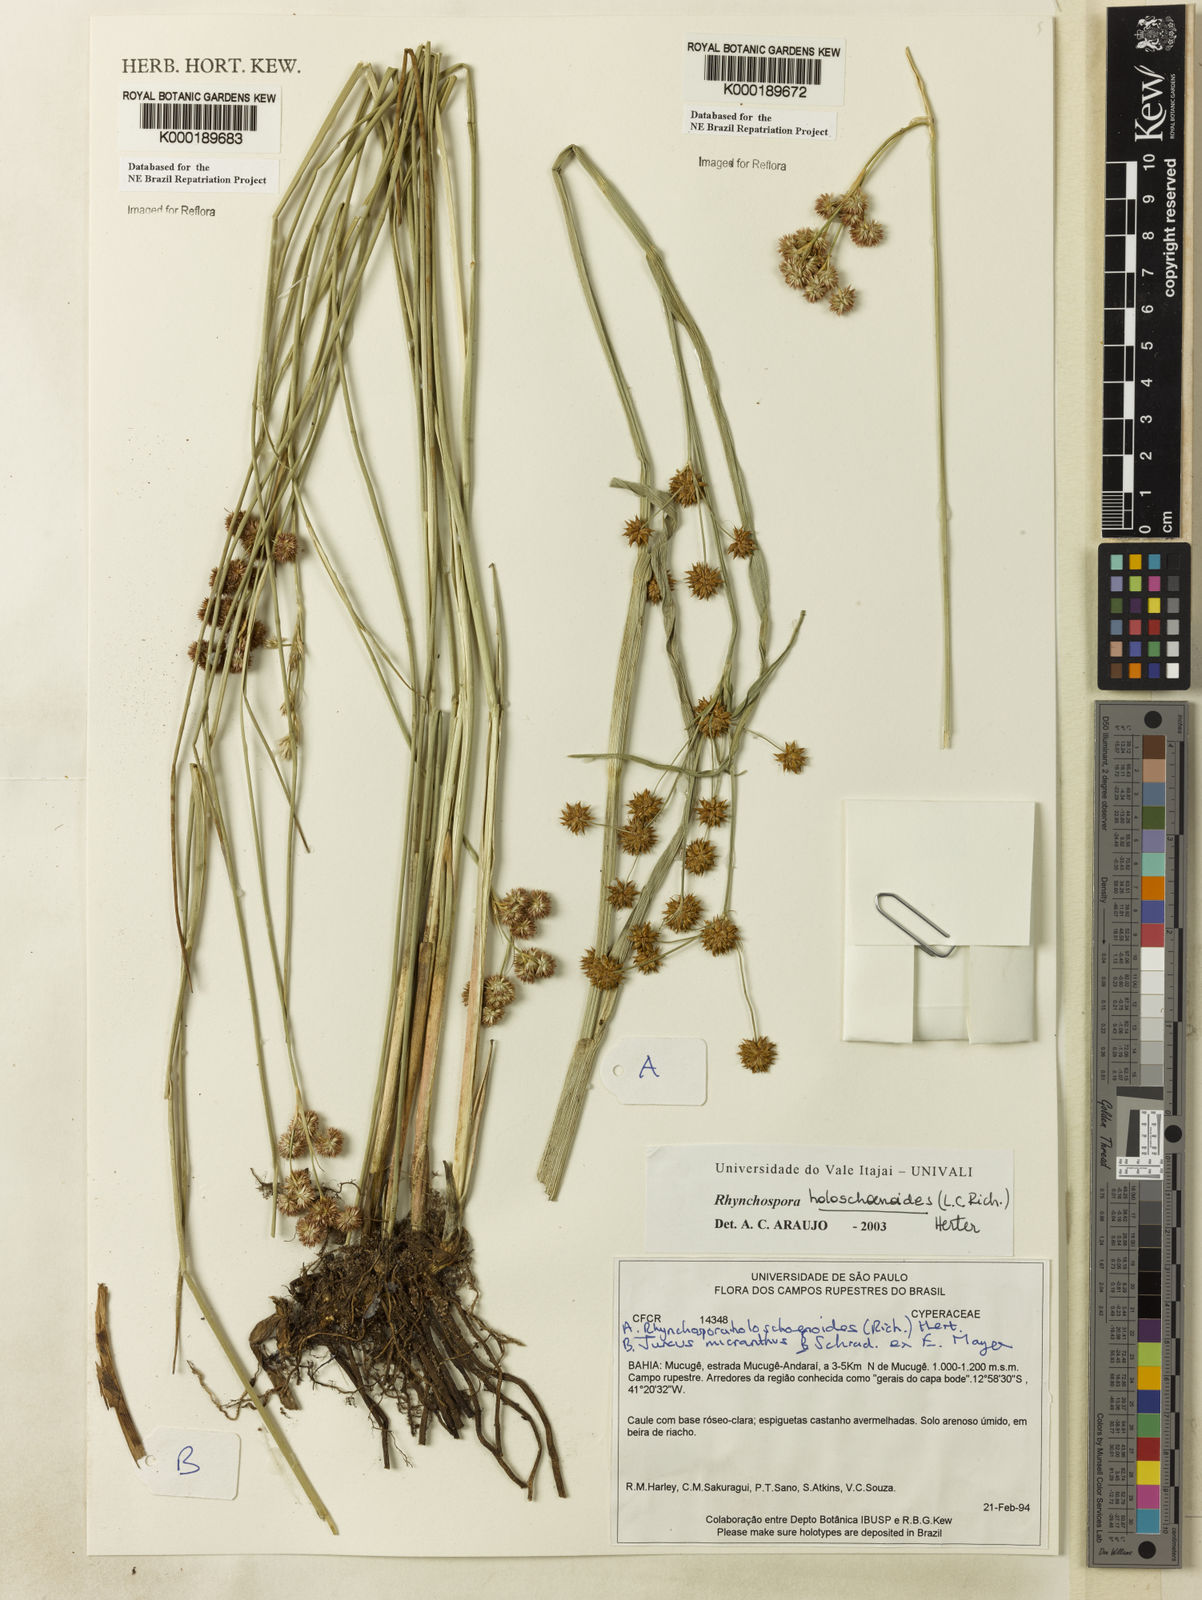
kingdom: Plantae
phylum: Tracheophyta
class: Liliopsida
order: Poales
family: Cyperaceae
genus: Rhynchospora
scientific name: Rhynchospora holoschoenoides
